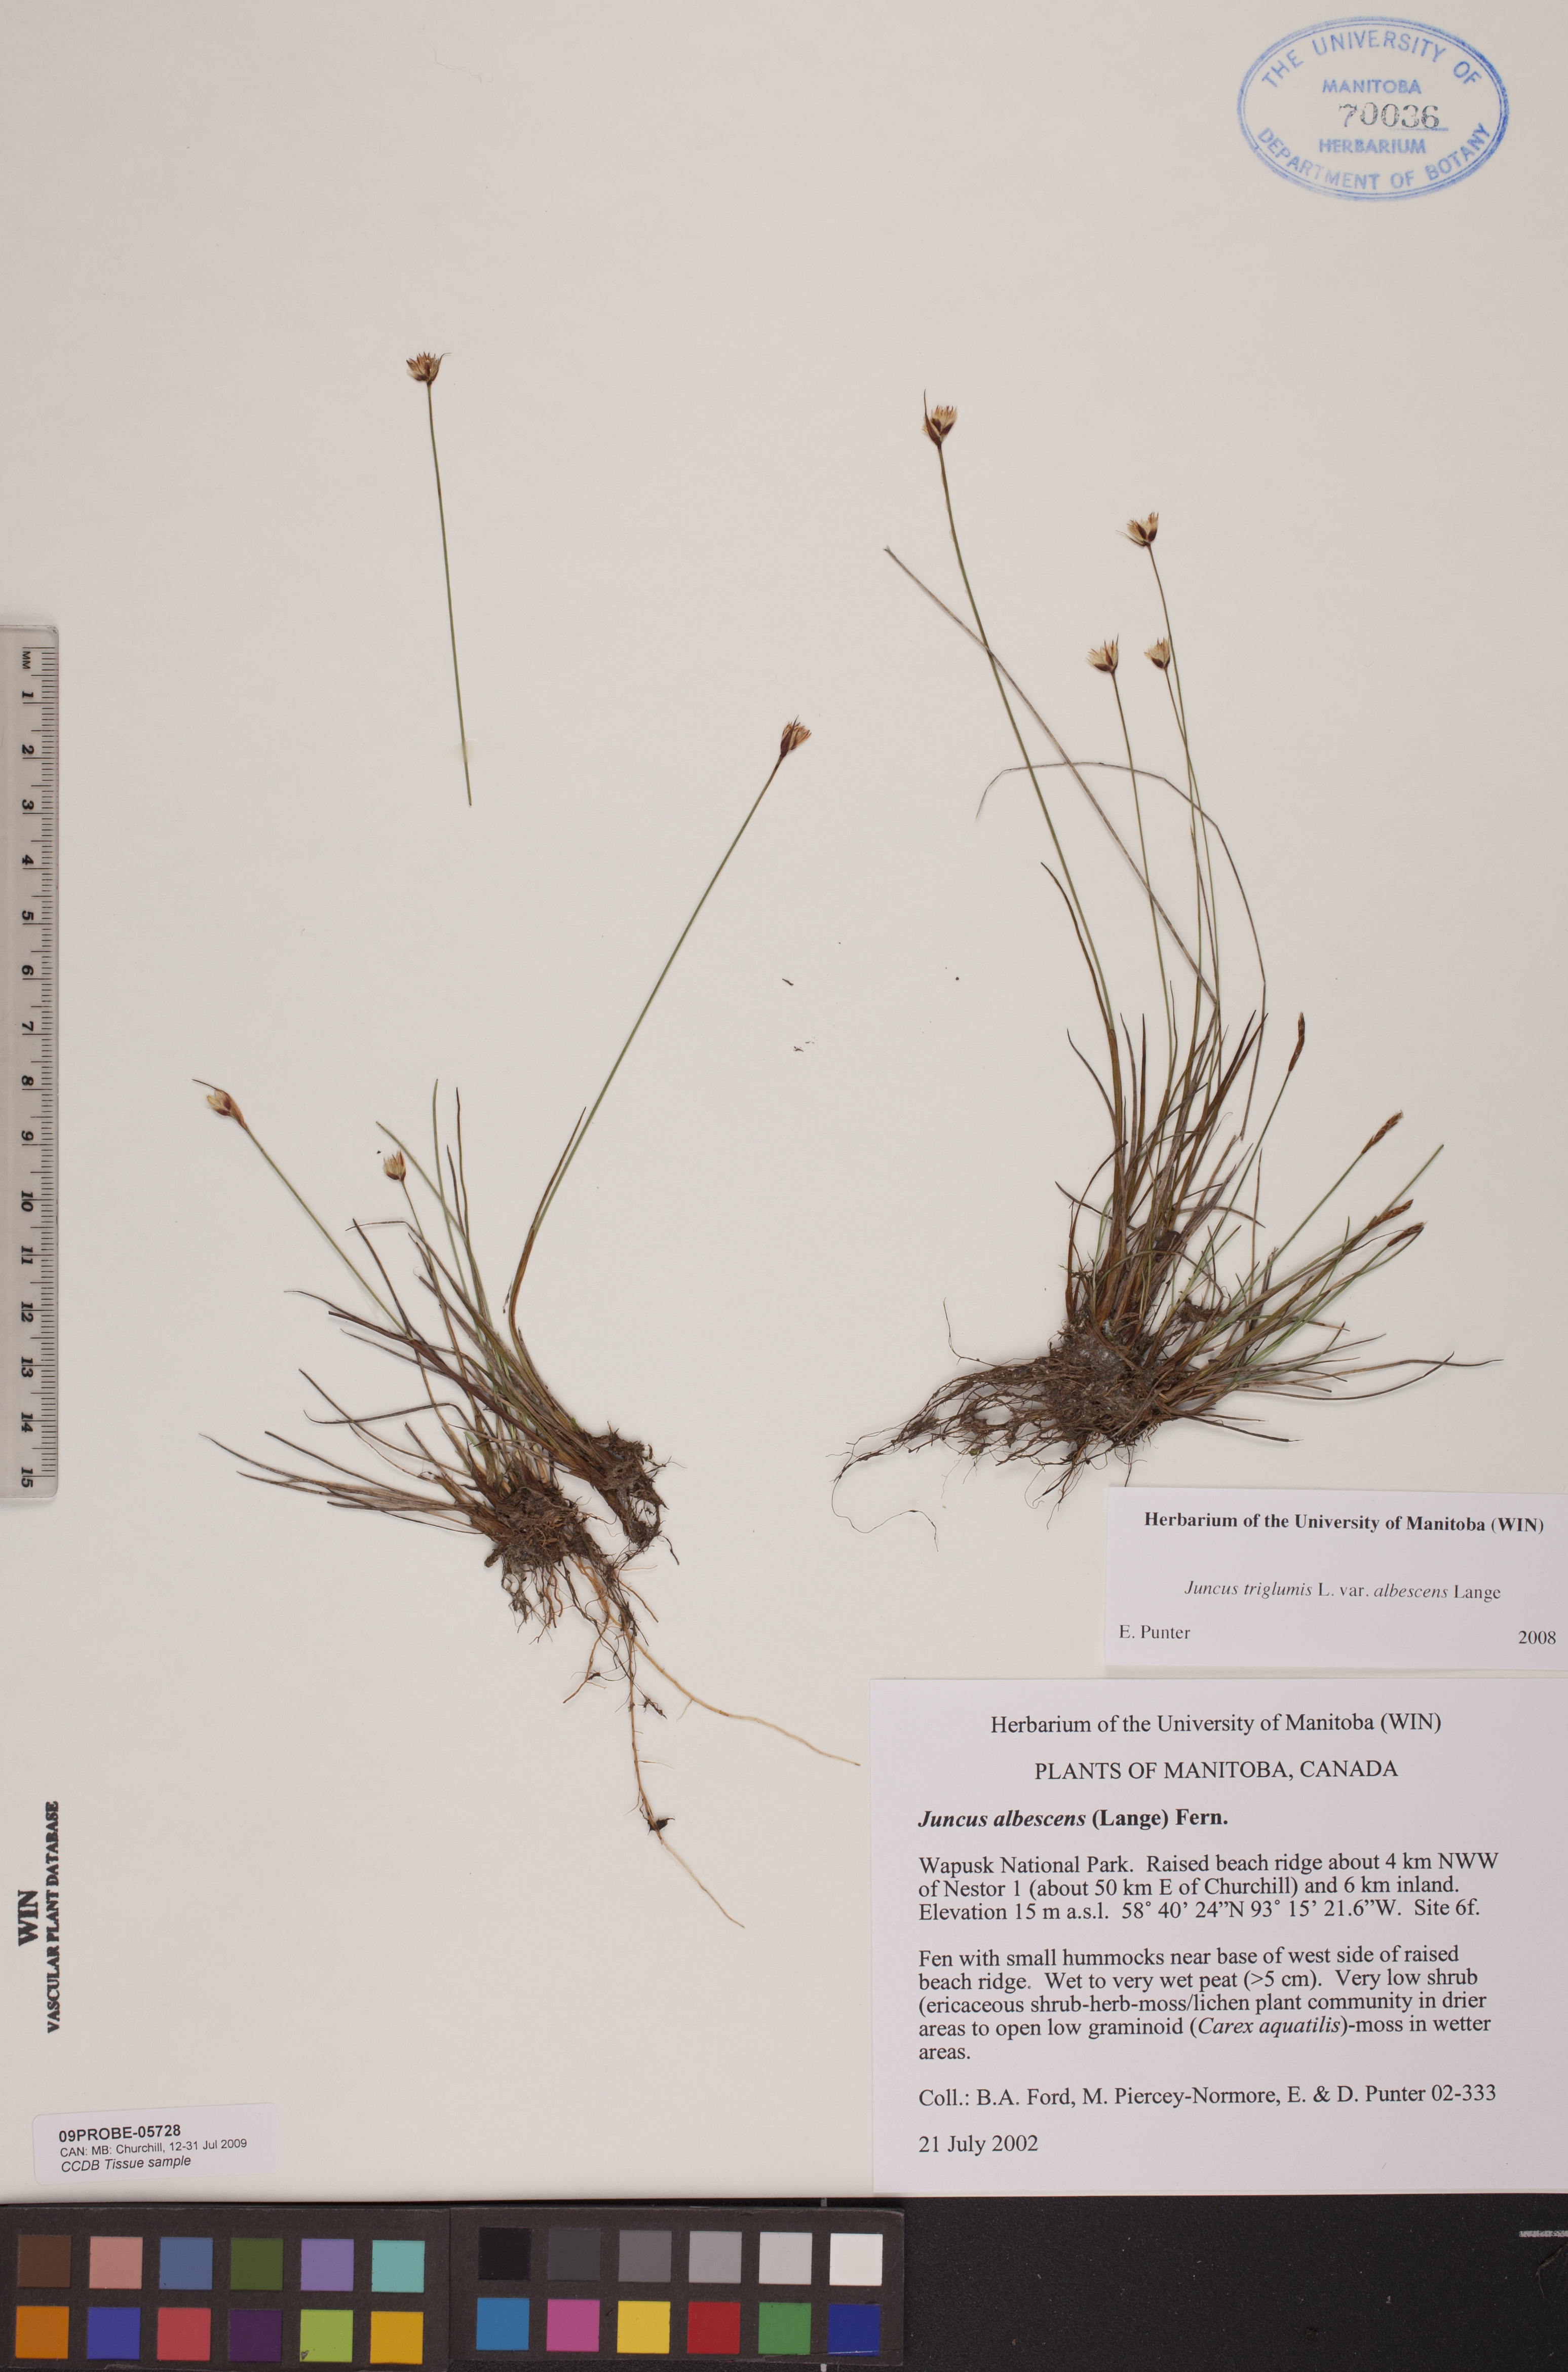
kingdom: Plantae
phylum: Tracheophyta
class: Liliopsida
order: Poales
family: Juncaceae
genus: Juncus
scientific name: Juncus albescens
